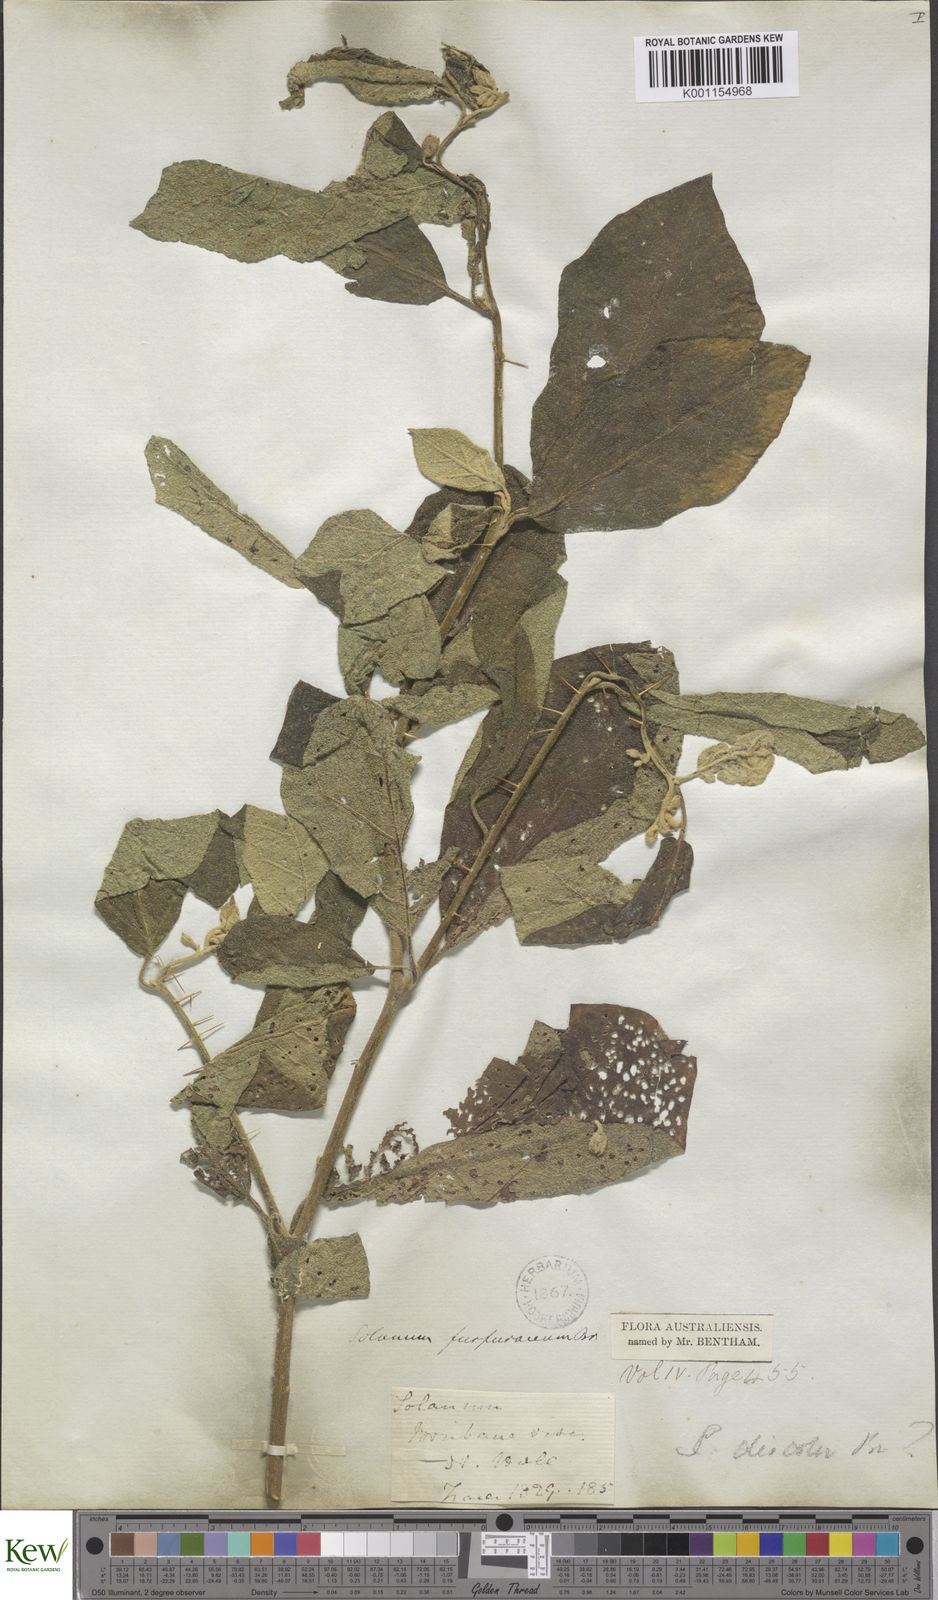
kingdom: Plantae
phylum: Tracheophyta
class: Magnoliopsida
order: Solanales
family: Solanaceae
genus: Solanum
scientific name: Solanum furfuraceum
